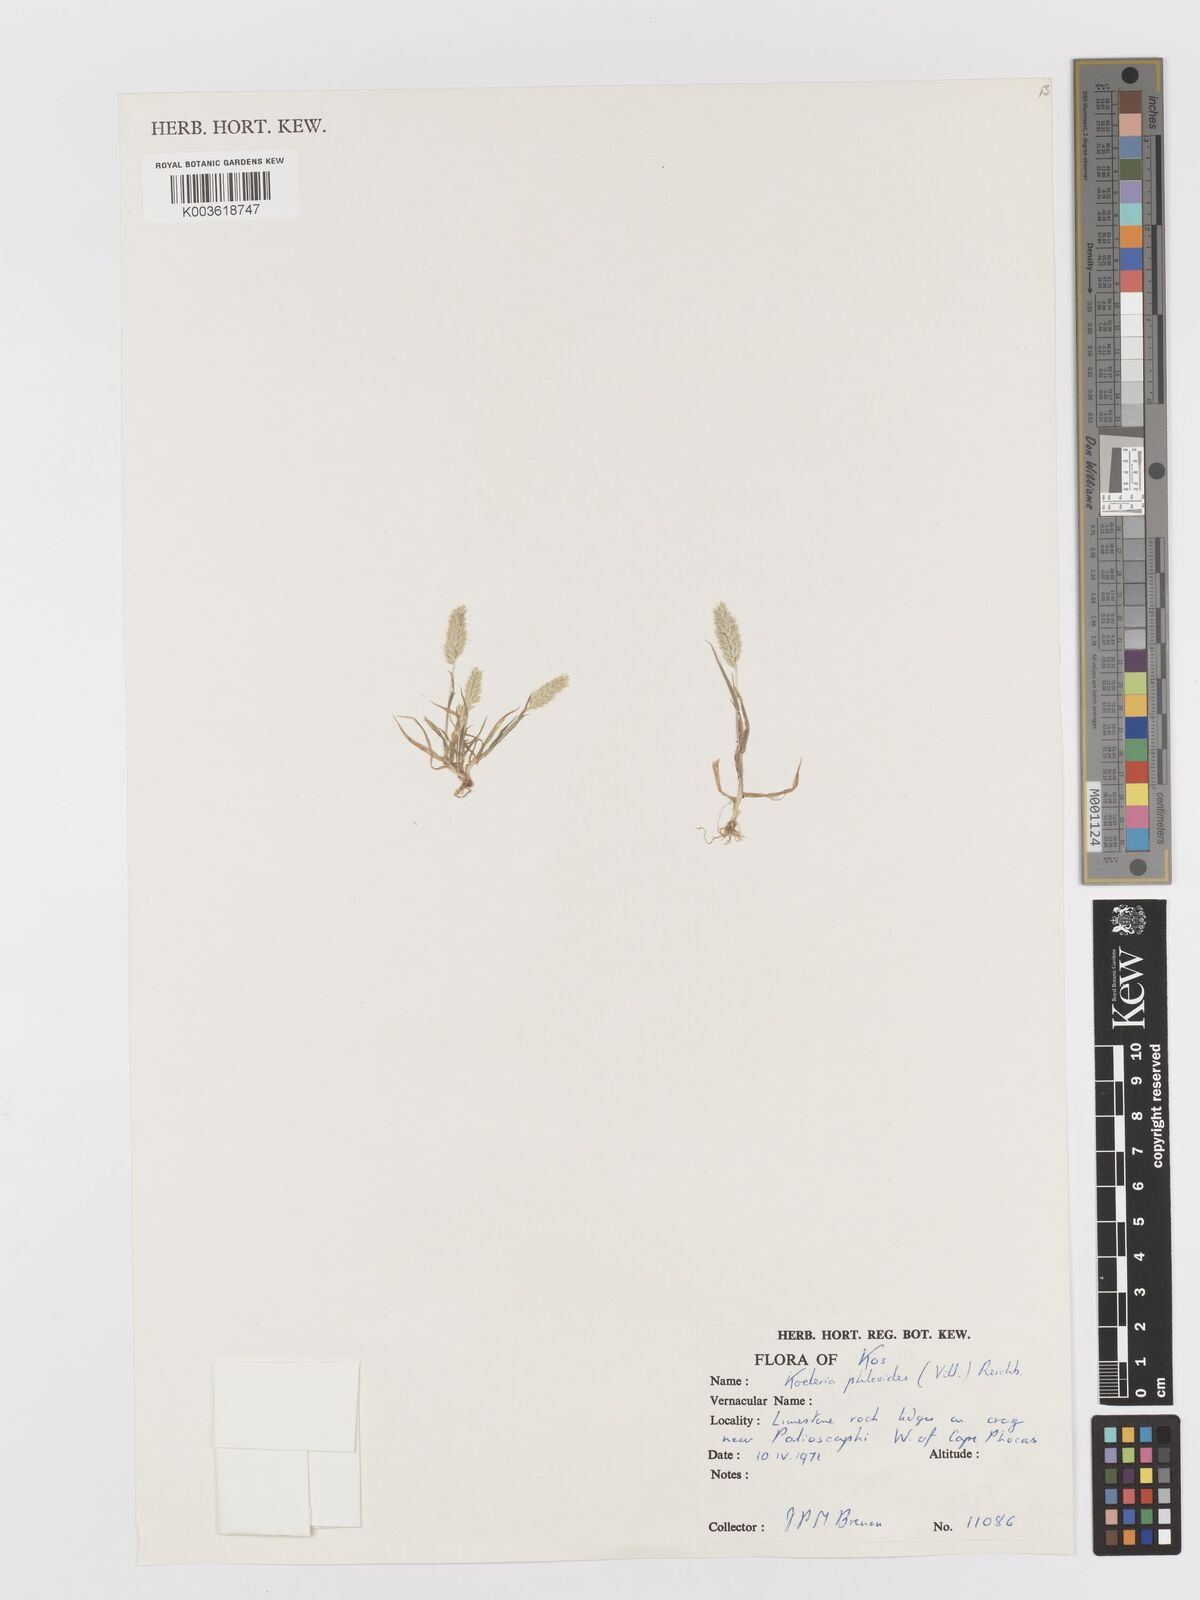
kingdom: Plantae
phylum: Tracheophyta
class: Liliopsida
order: Poales
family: Poaceae
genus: Rostraria
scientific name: Rostraria cristata
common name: Mediterranean hair-grass
